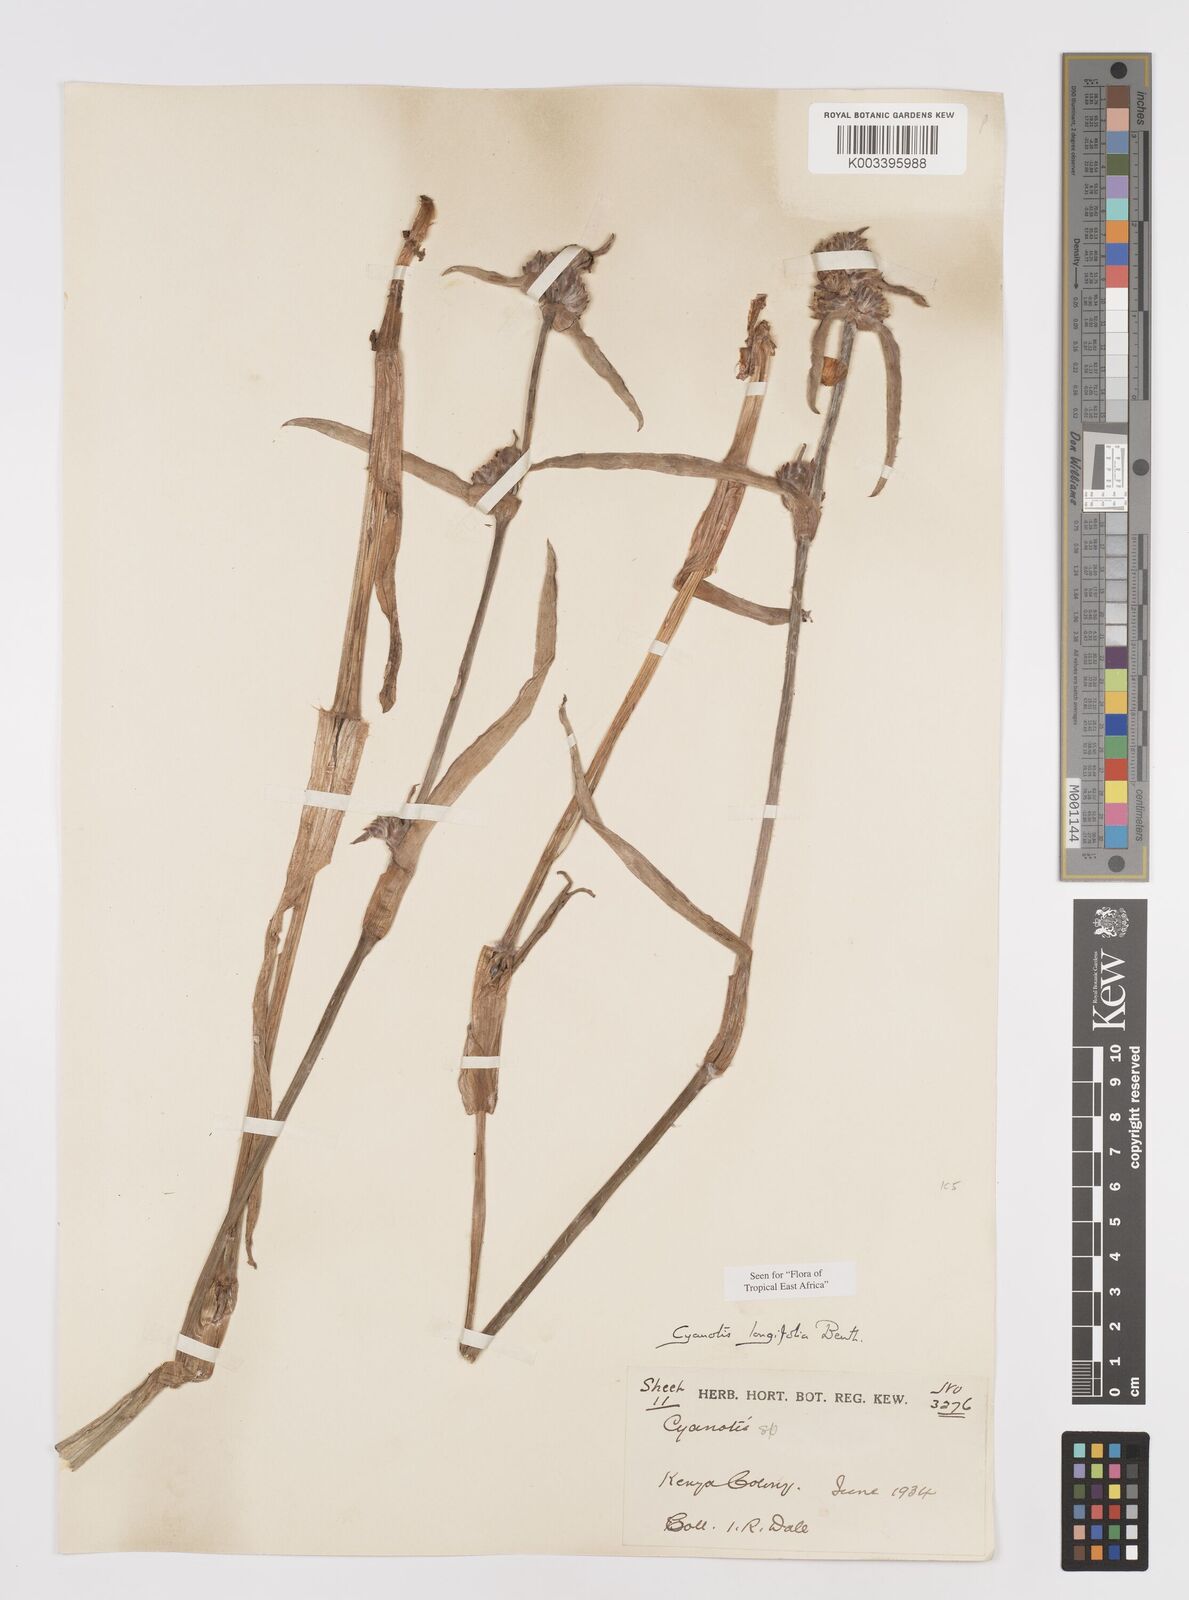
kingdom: Plantae
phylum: Tracheophyta
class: Liliopsida
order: Commelinales
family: Commelinaceae
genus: Cyanotis
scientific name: Cyanotis longifolia
